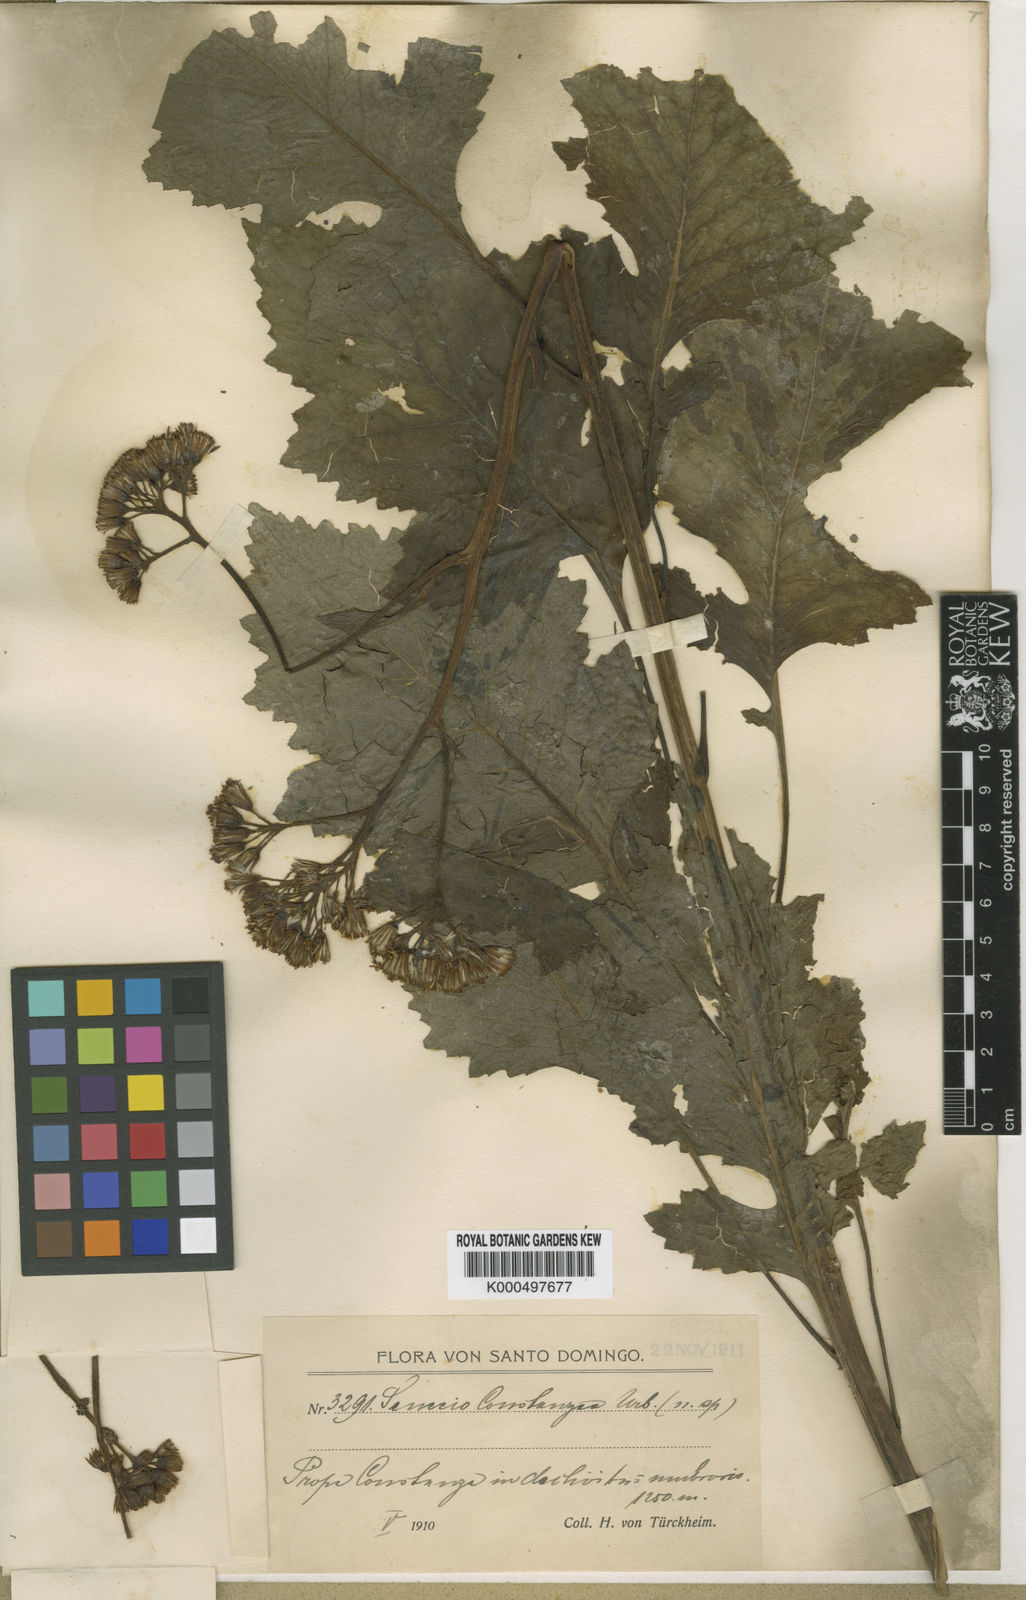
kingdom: Plantae
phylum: Tracheophyta
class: Magnoliopsida
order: Asterales
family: Asteraceae
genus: Ignurbia
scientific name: Ignurbia constanzae
